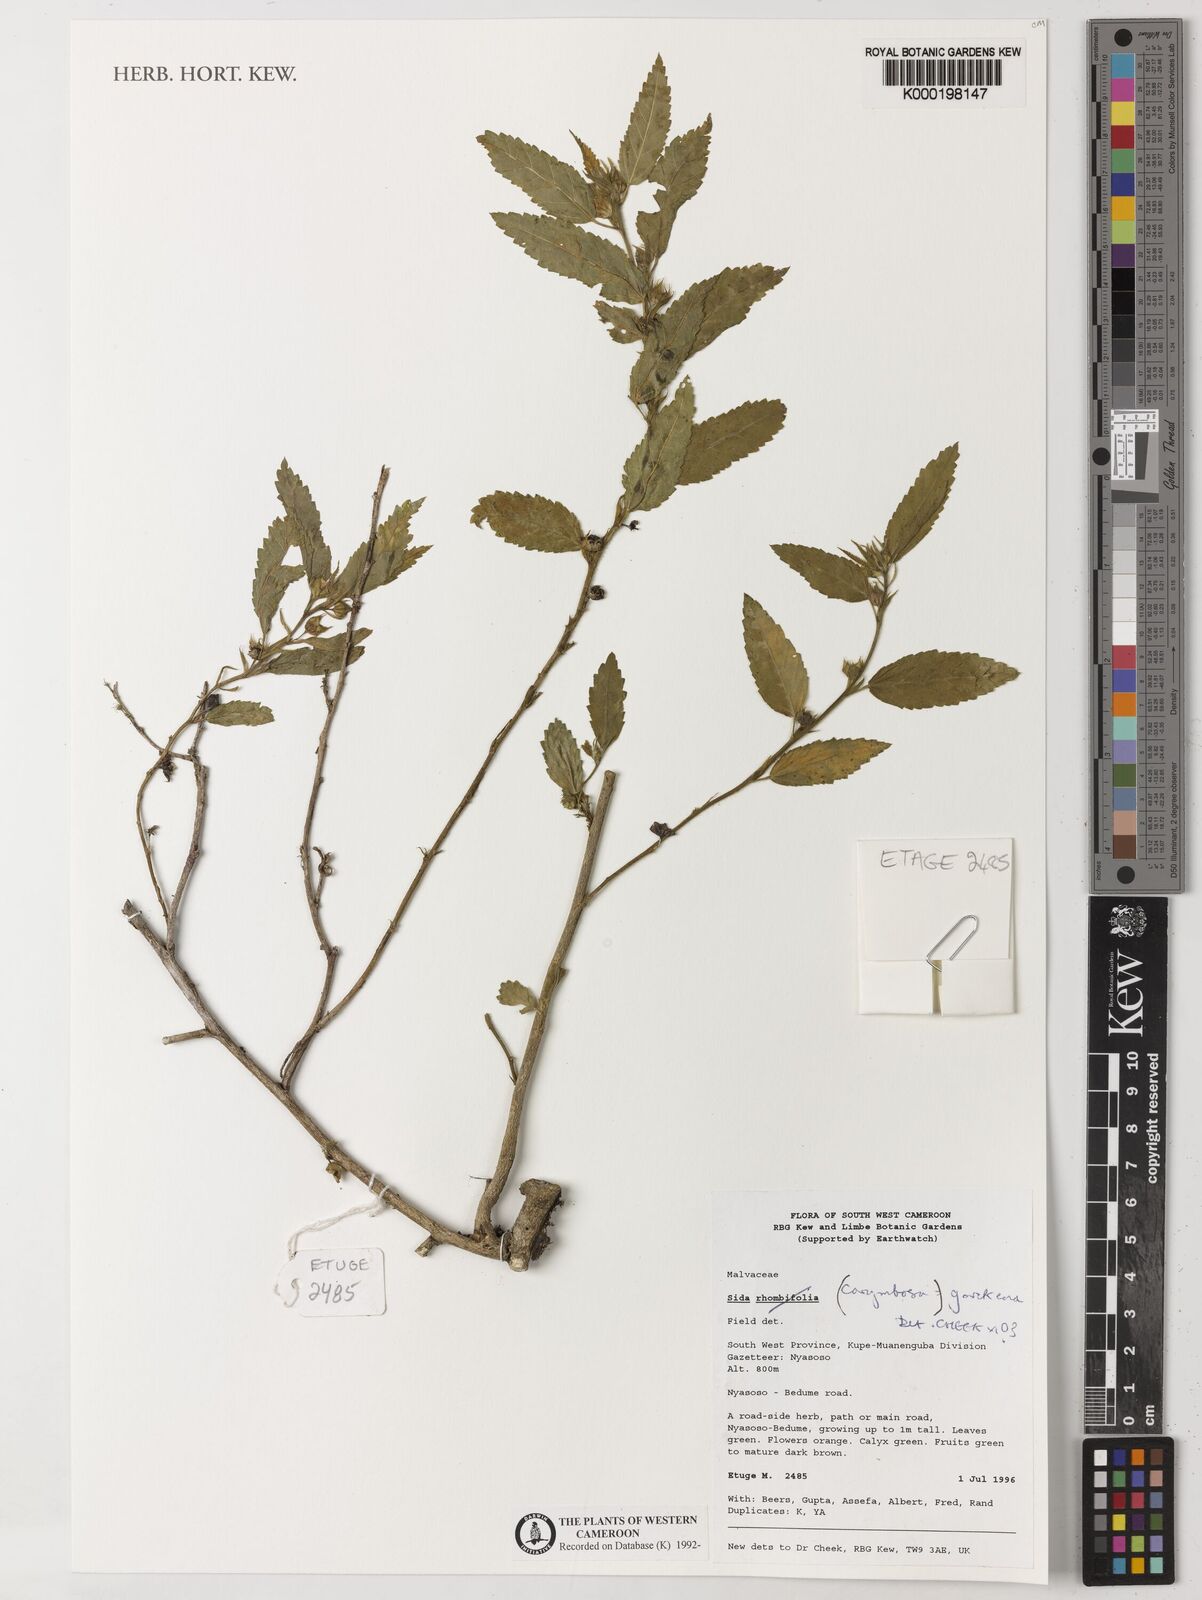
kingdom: Plantae
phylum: Tracheophyta
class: Magnoliopsida
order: Malvales
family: Malvaceae
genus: Sida
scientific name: Sida acuta
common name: Common wireweed
